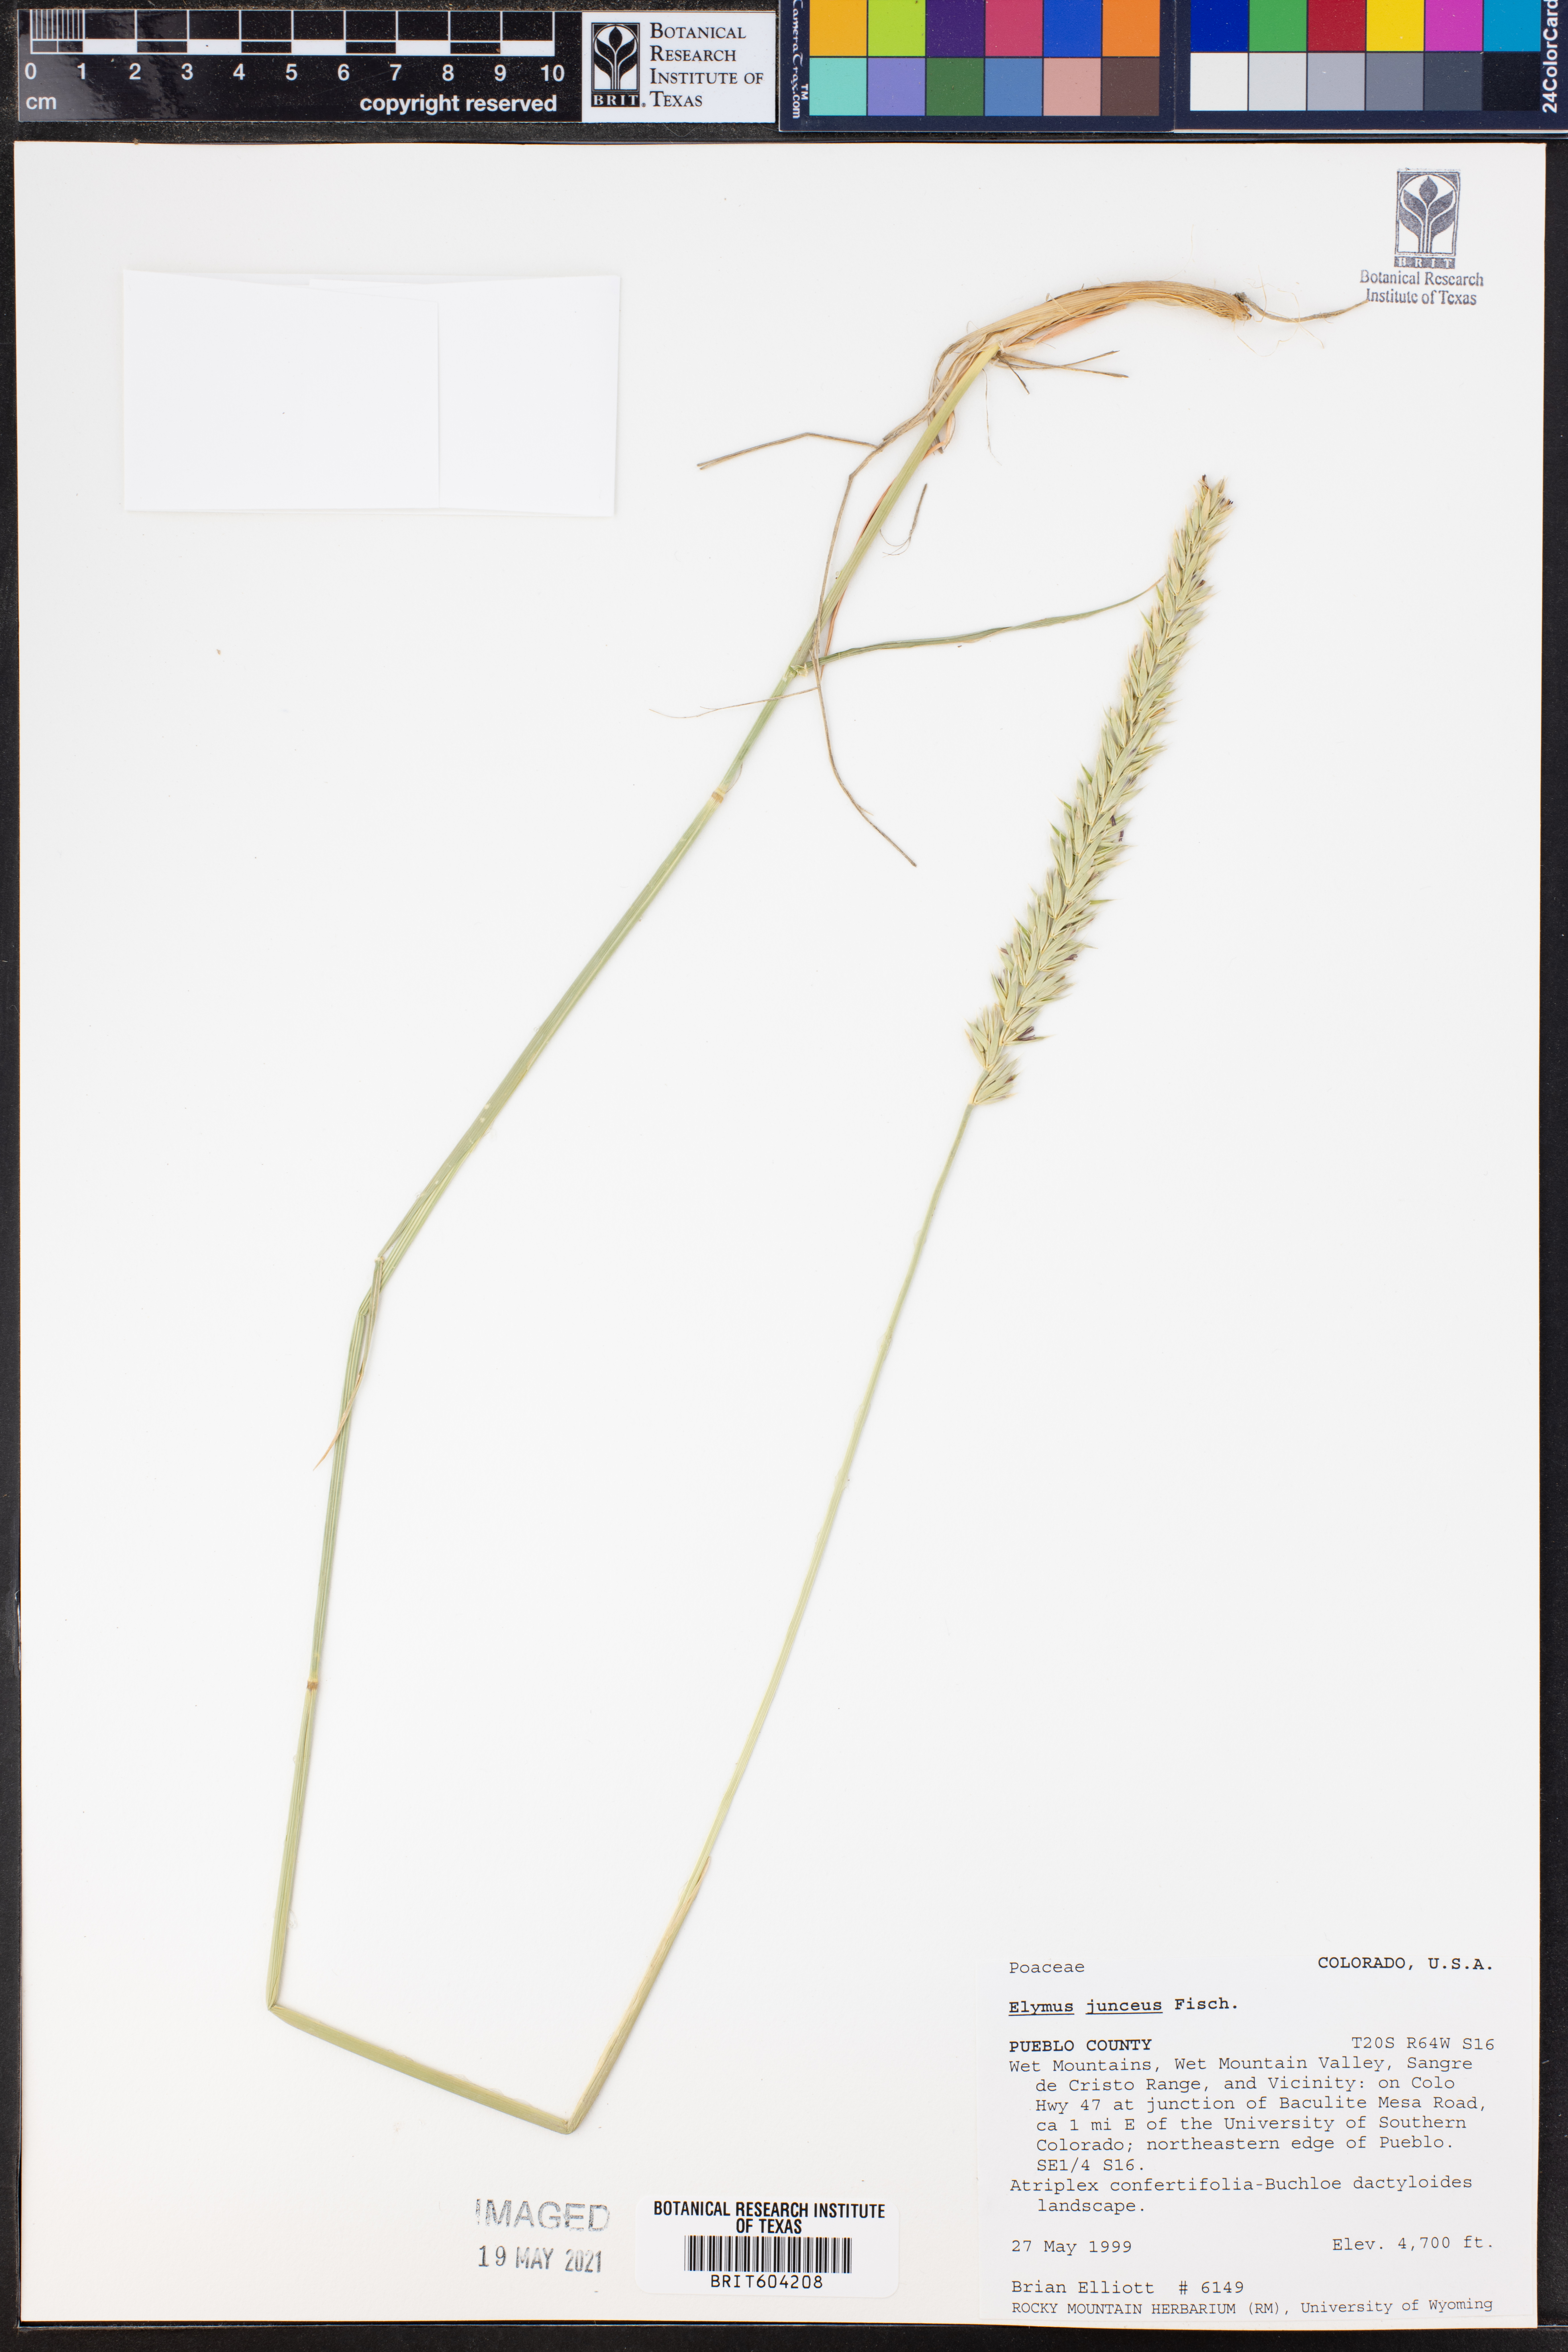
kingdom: Plantae
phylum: Tracheophyta
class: Liliopsida
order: Poales
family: Poaceae
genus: Psathyrostachys
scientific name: Psathyrostachys juncea
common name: Russian wildrye
